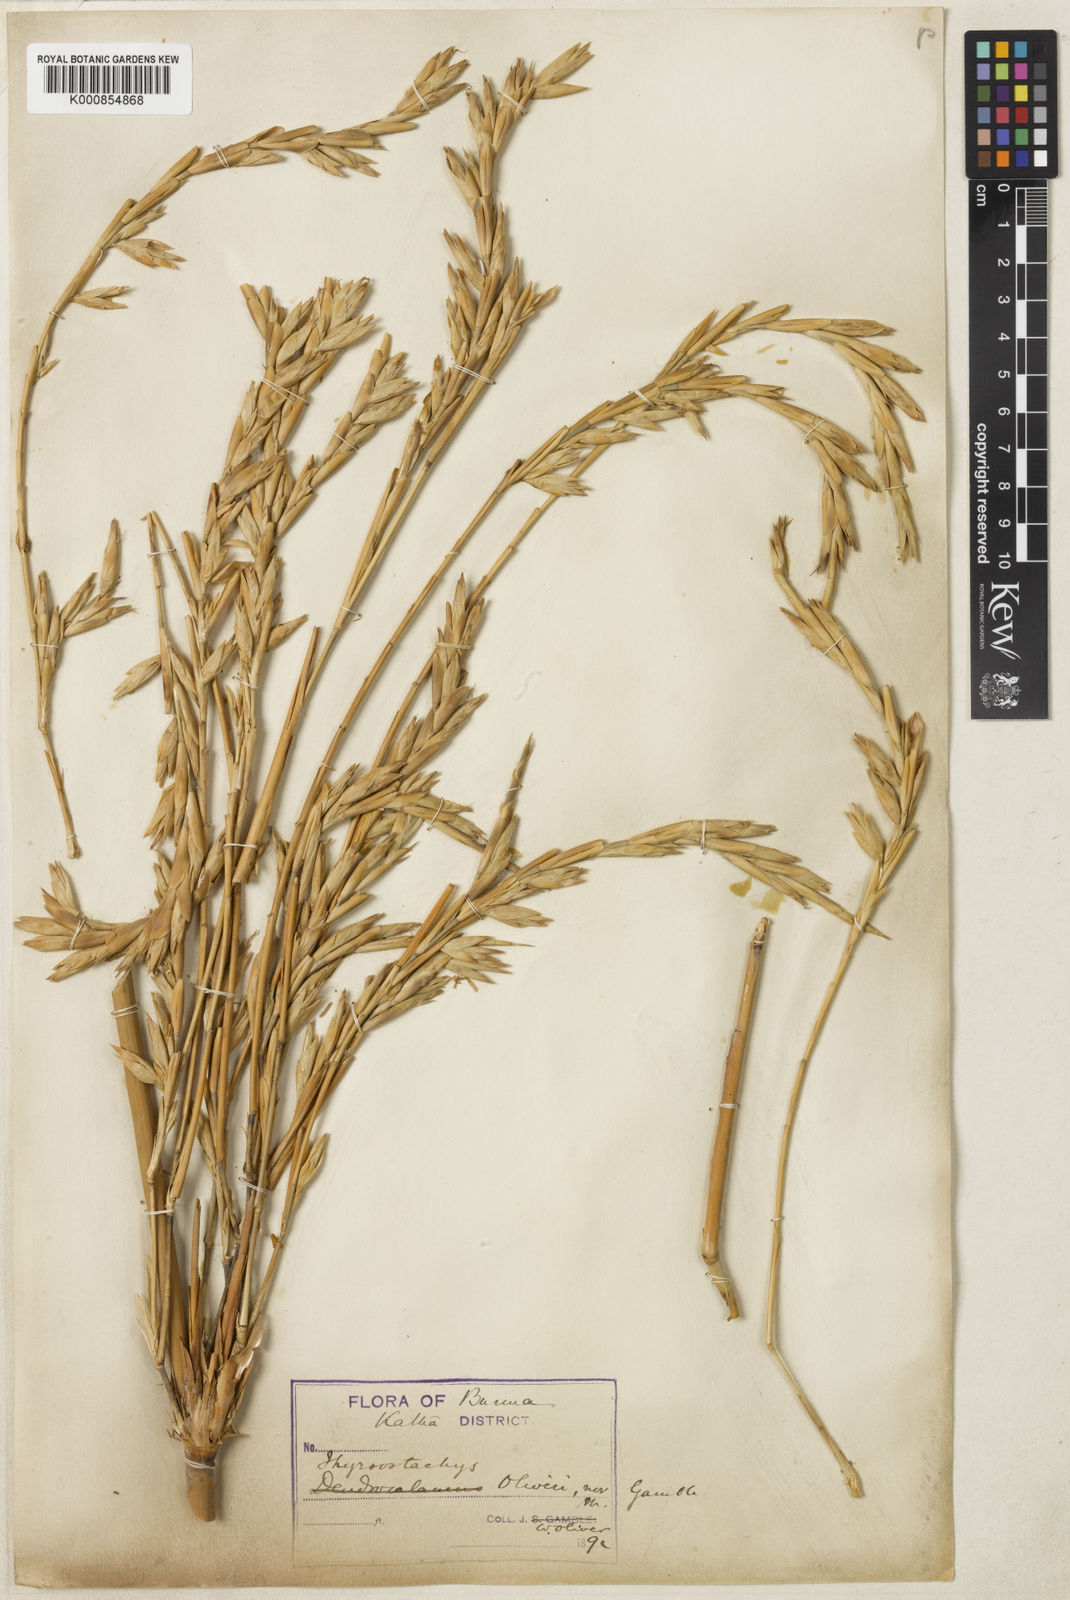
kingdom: Plantae
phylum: Tracheophyta
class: Liliopsida
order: Poales
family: Poaceae
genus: Thyrsostachys
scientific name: Thyrsostachys oliveri
